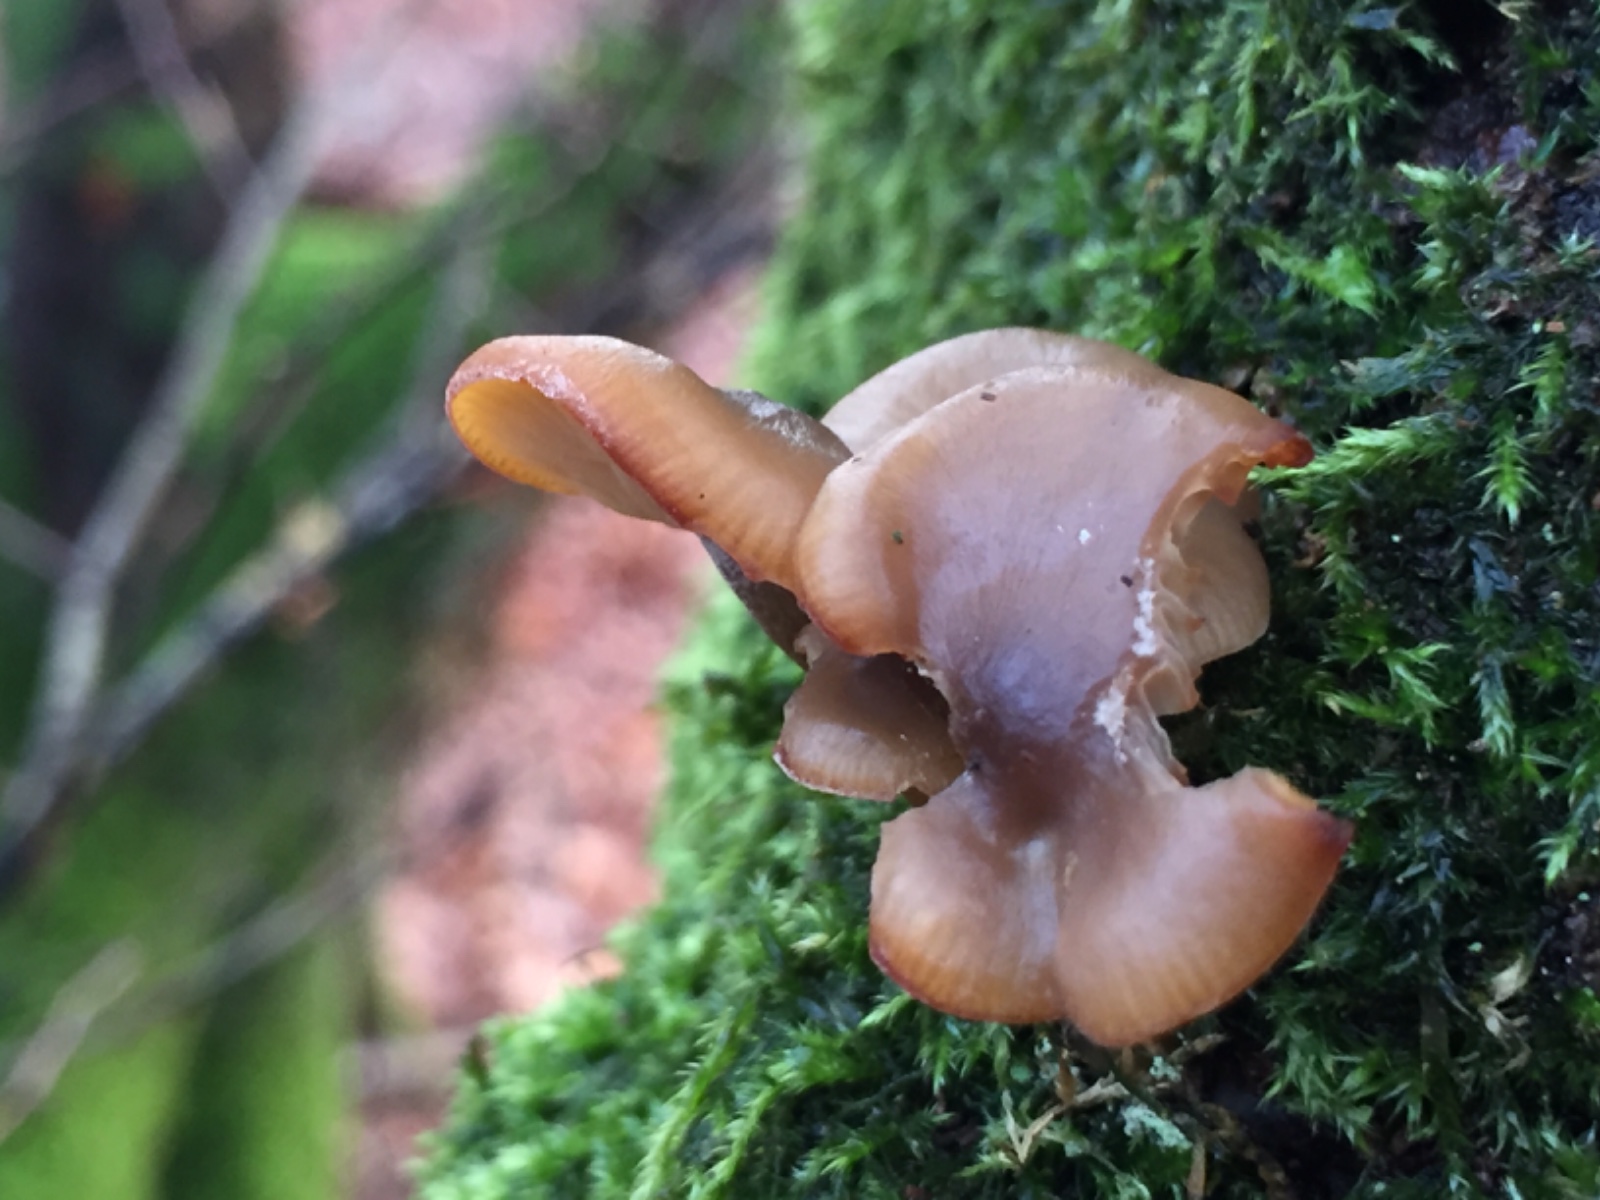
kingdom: Fungi
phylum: Basidiomycota
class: Agaricomycetes
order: Agaricales
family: Tricholomataceae
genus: Clitocybe
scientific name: Clitocybe metachroa
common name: grå tragthat
